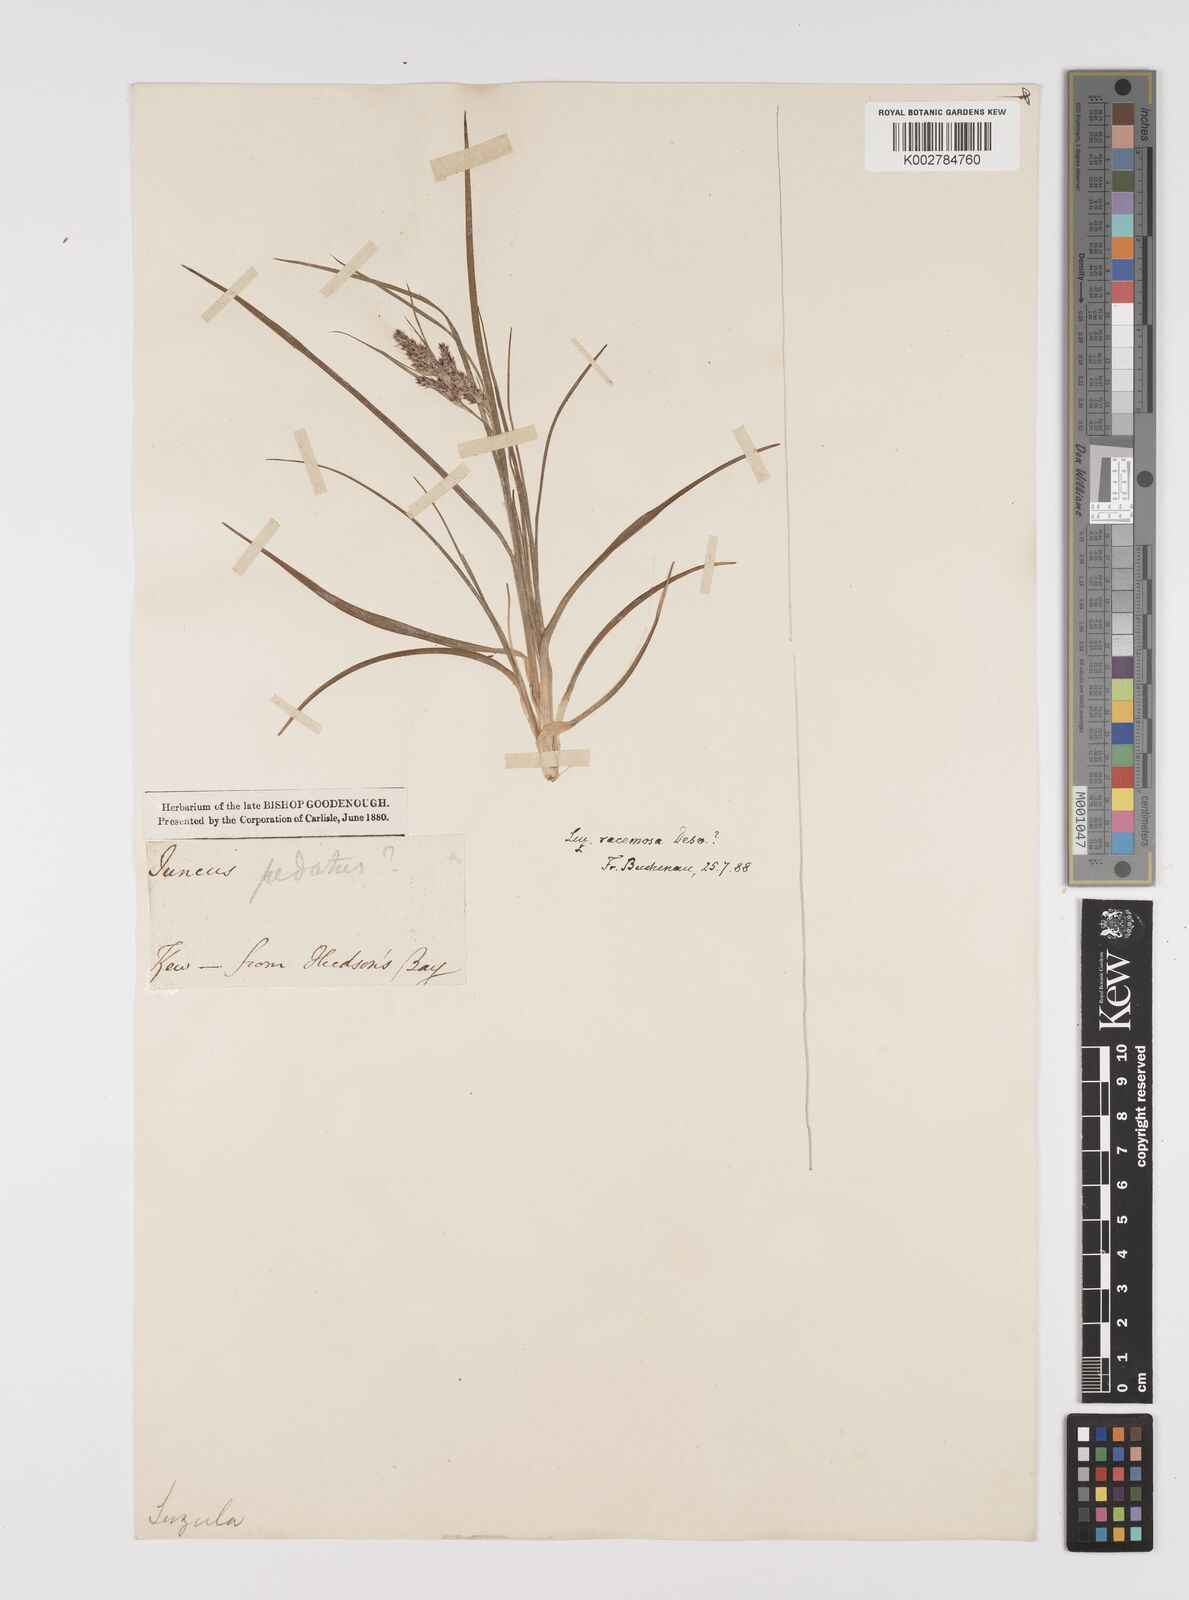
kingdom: Plantae
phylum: Tracheophyta
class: Liliopsida
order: Poales
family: Juncaceae
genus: Luzula
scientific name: Luzula comosa
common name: Pacific woodrush
